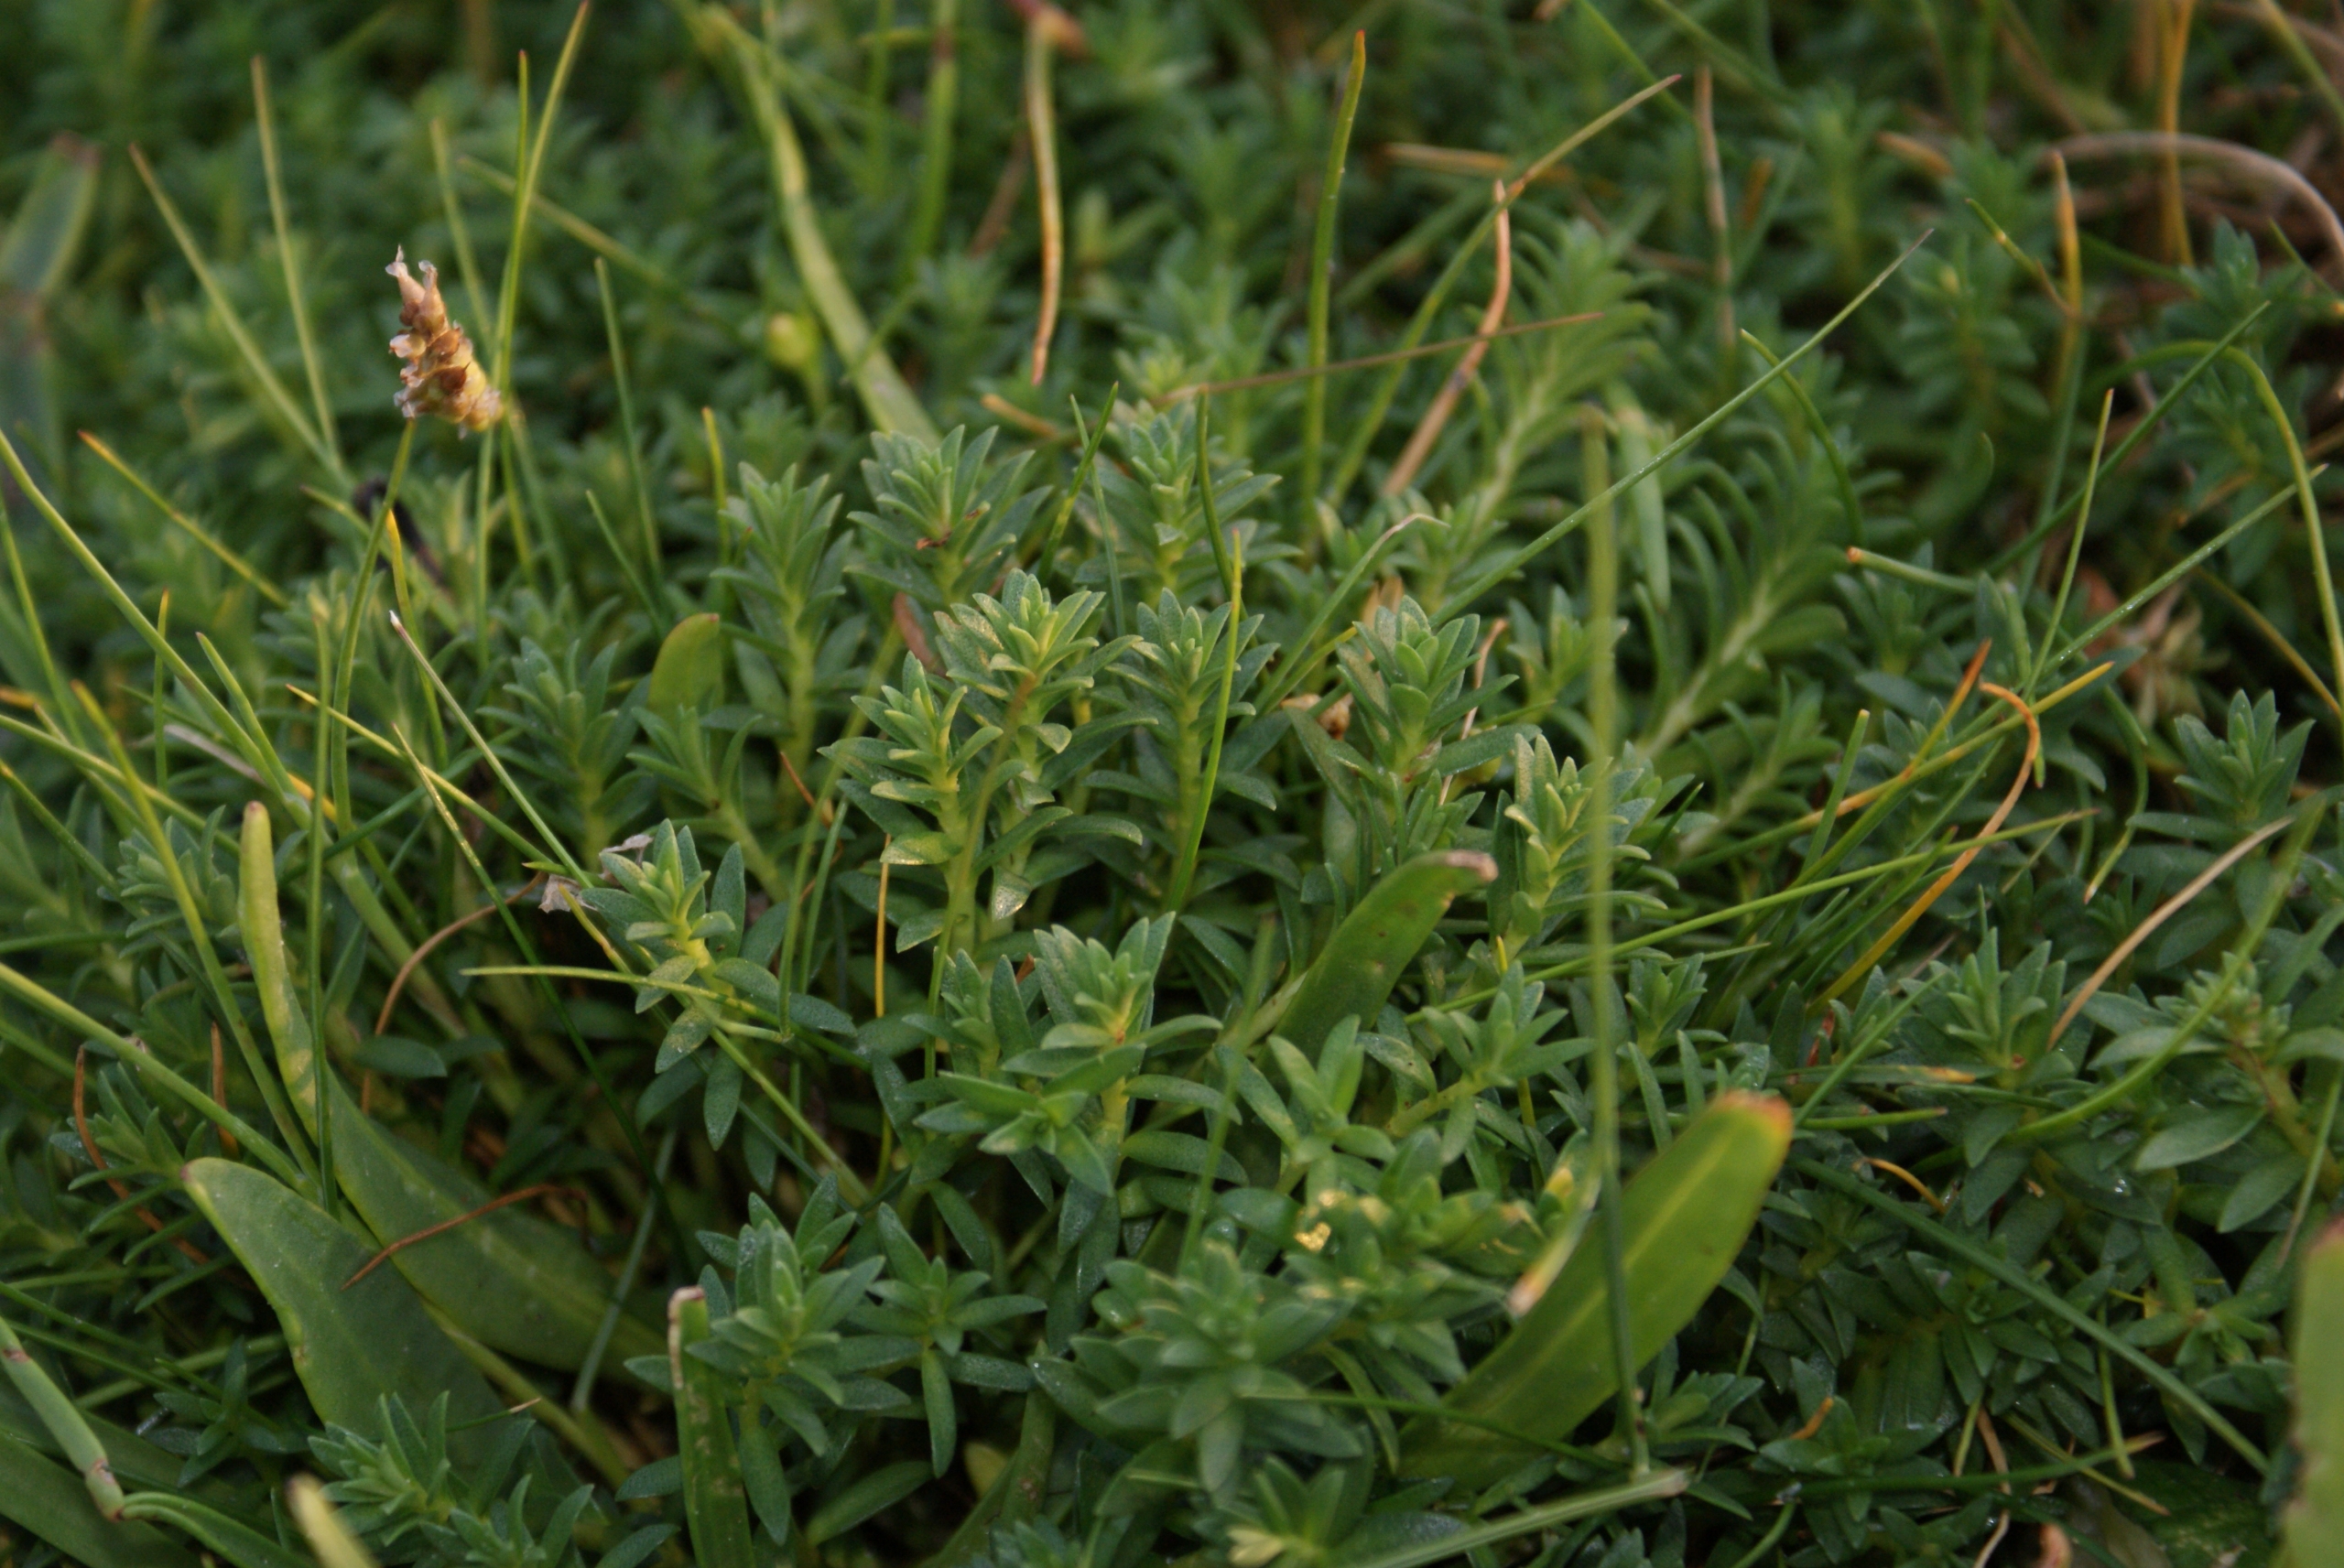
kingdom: Plantae
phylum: Tracheophyta
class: Magnoliopsida
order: Ericales
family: Primulaceae
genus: Lysimachia
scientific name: Lysimachia maritima
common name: Sandkryb
